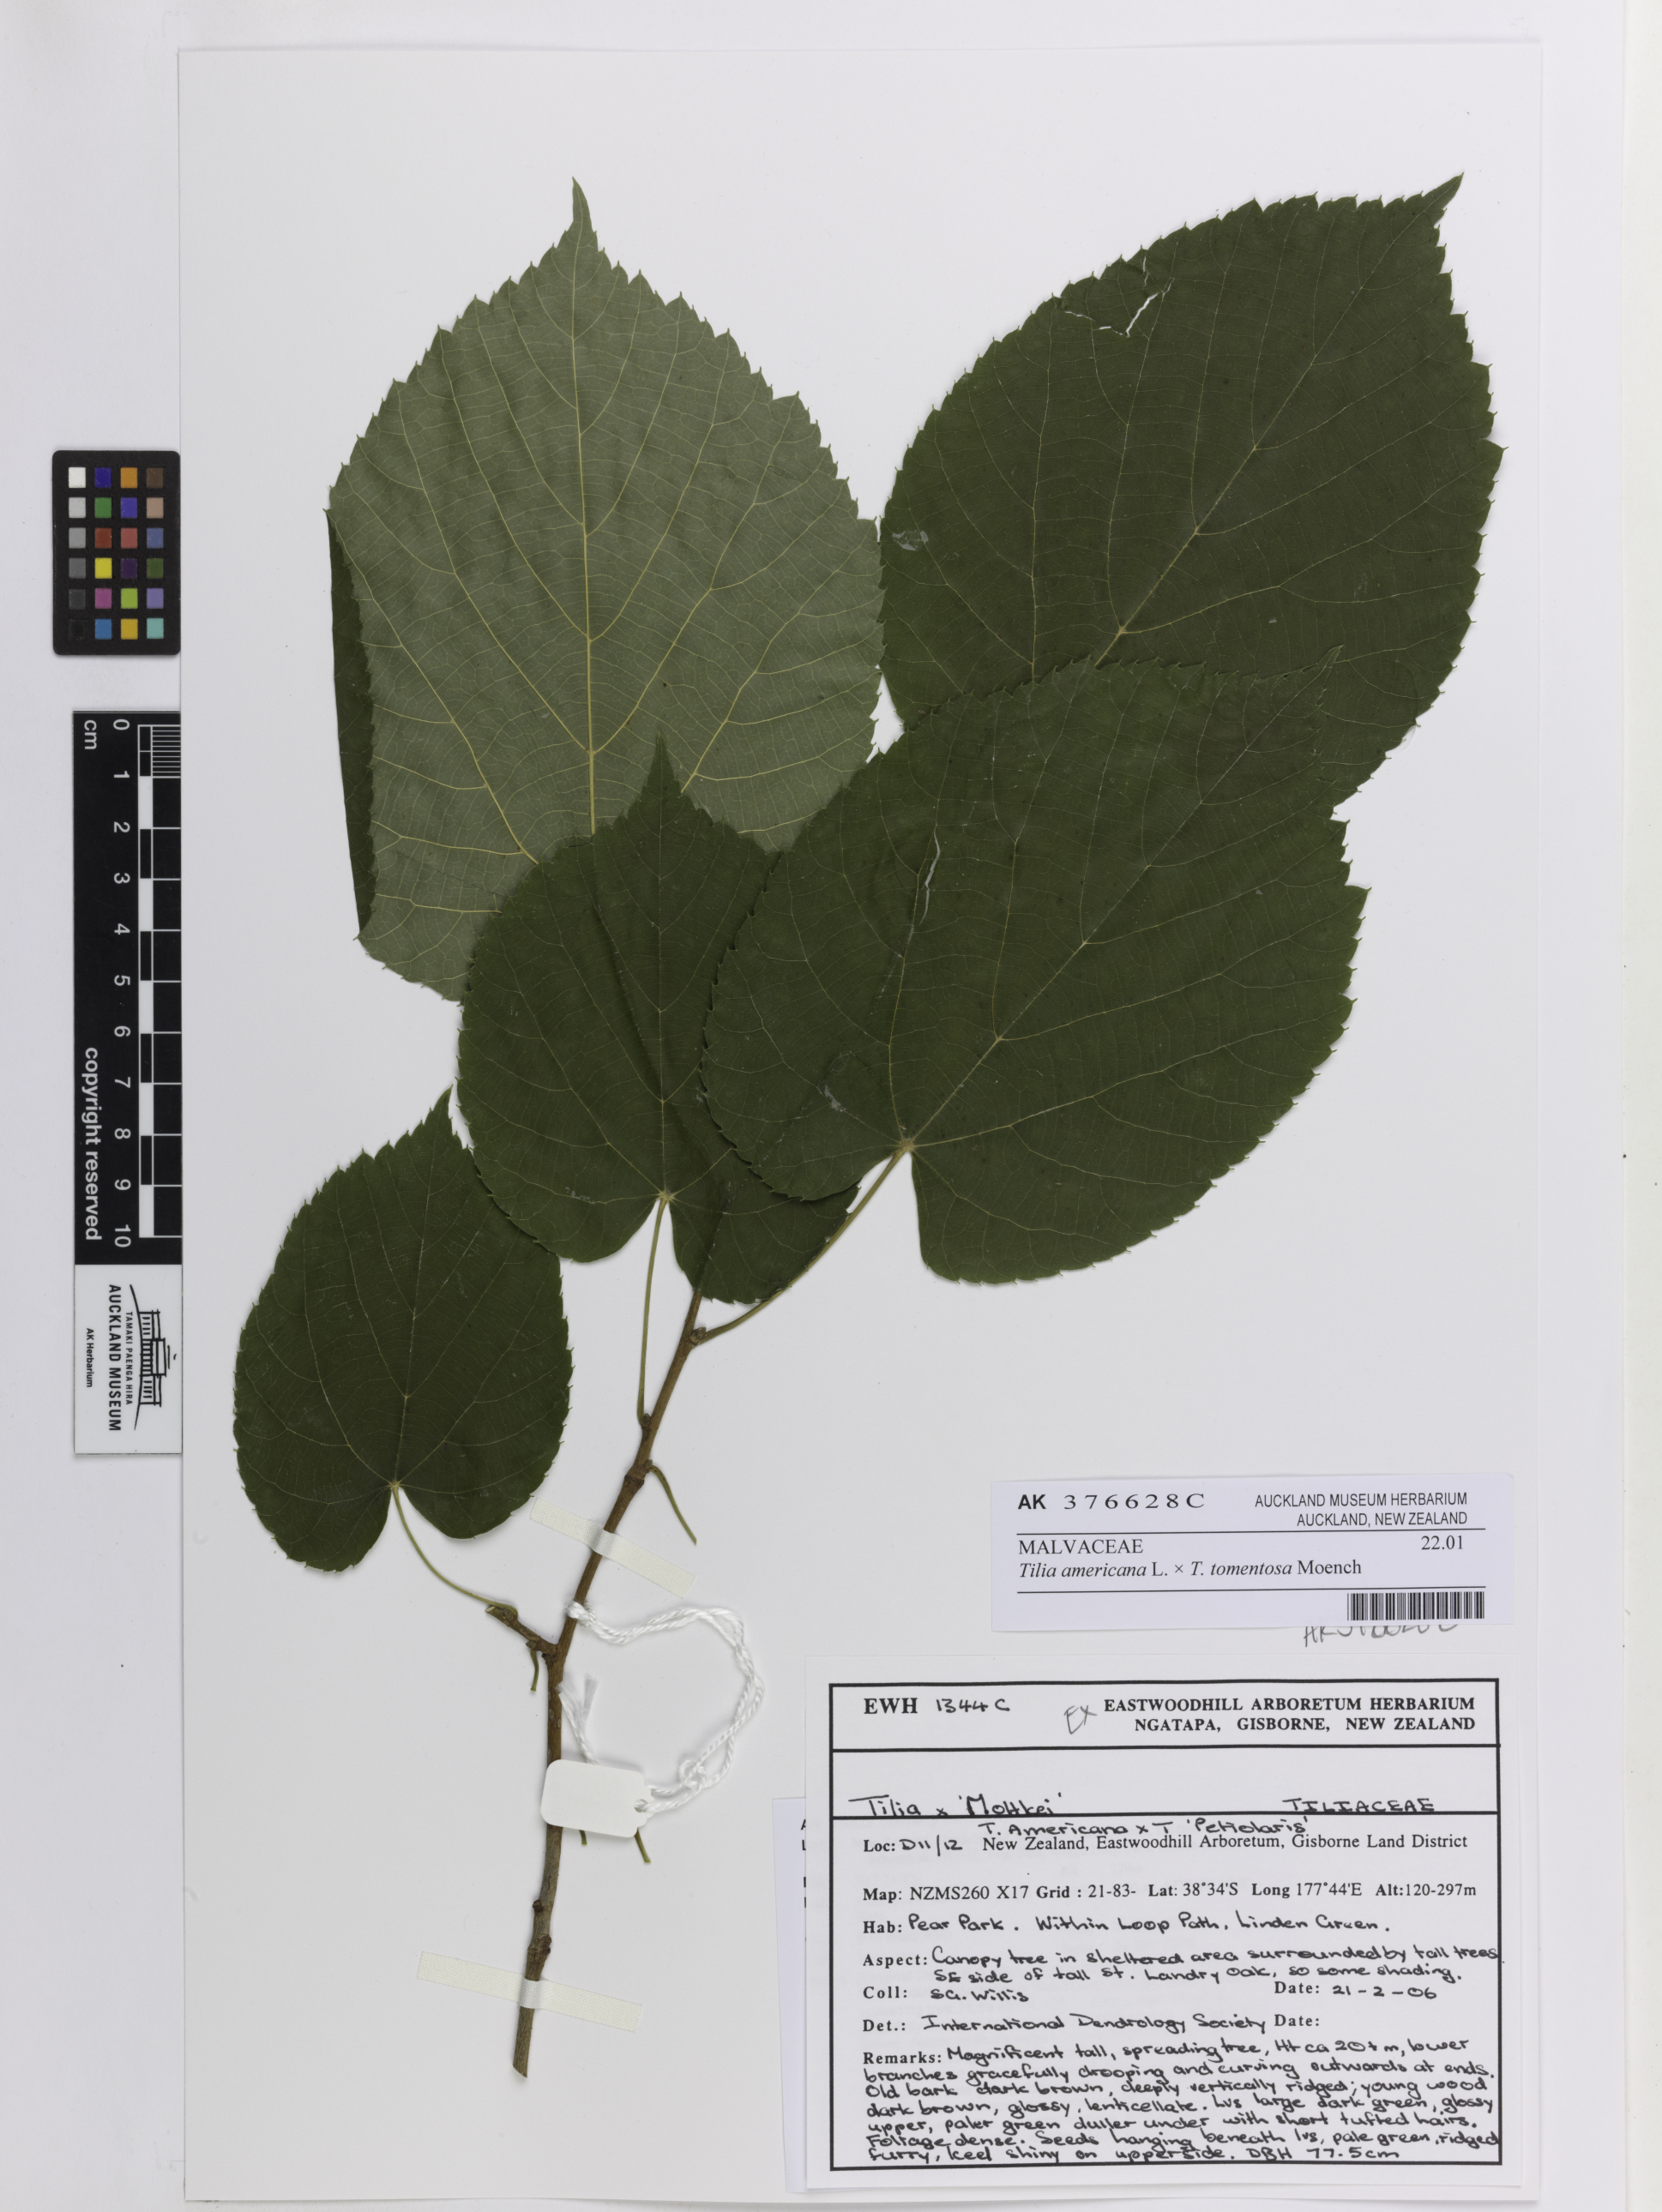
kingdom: Plantae
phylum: Tracheophyta
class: Magnoliopsida
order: Malvales
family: Malvaceae
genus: Tilia
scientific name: Tilia
